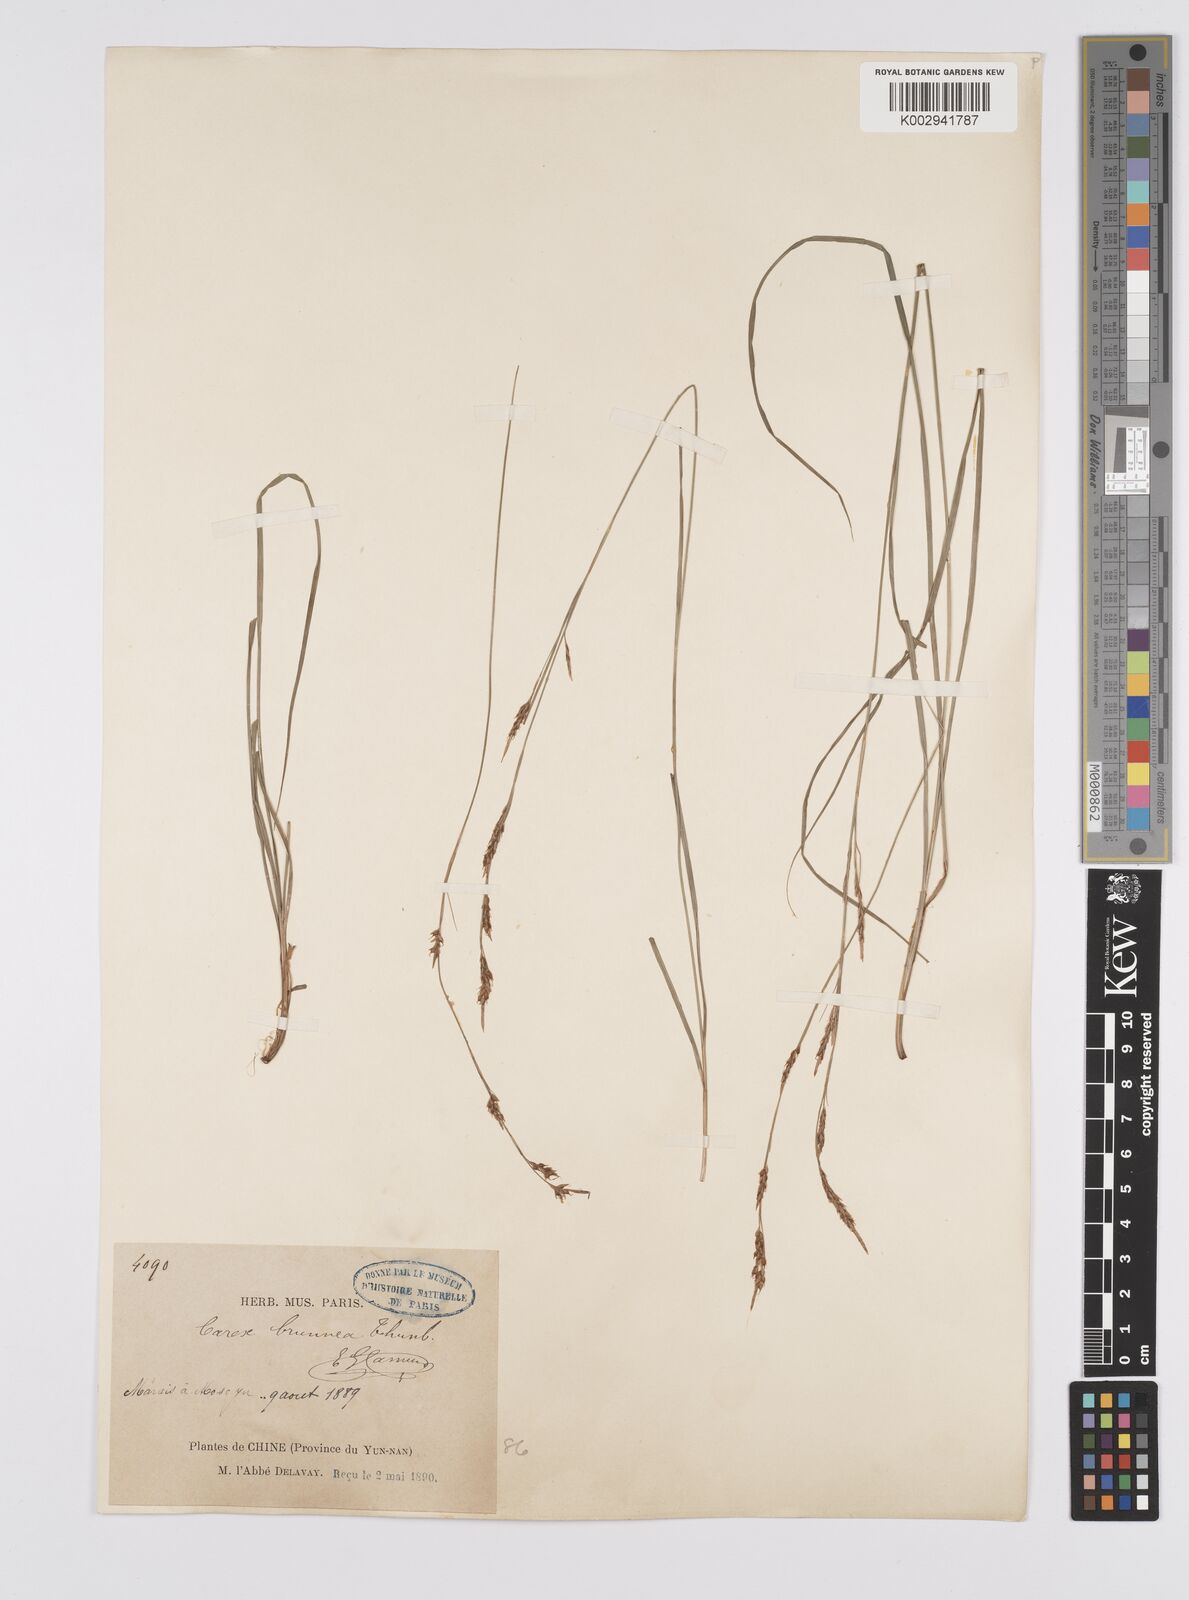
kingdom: Plantae
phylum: Tracheophyta
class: Liliopsida
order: Poales
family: Cyperaceae
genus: Carex
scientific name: Carex brunnea
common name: Greater brown sedge
